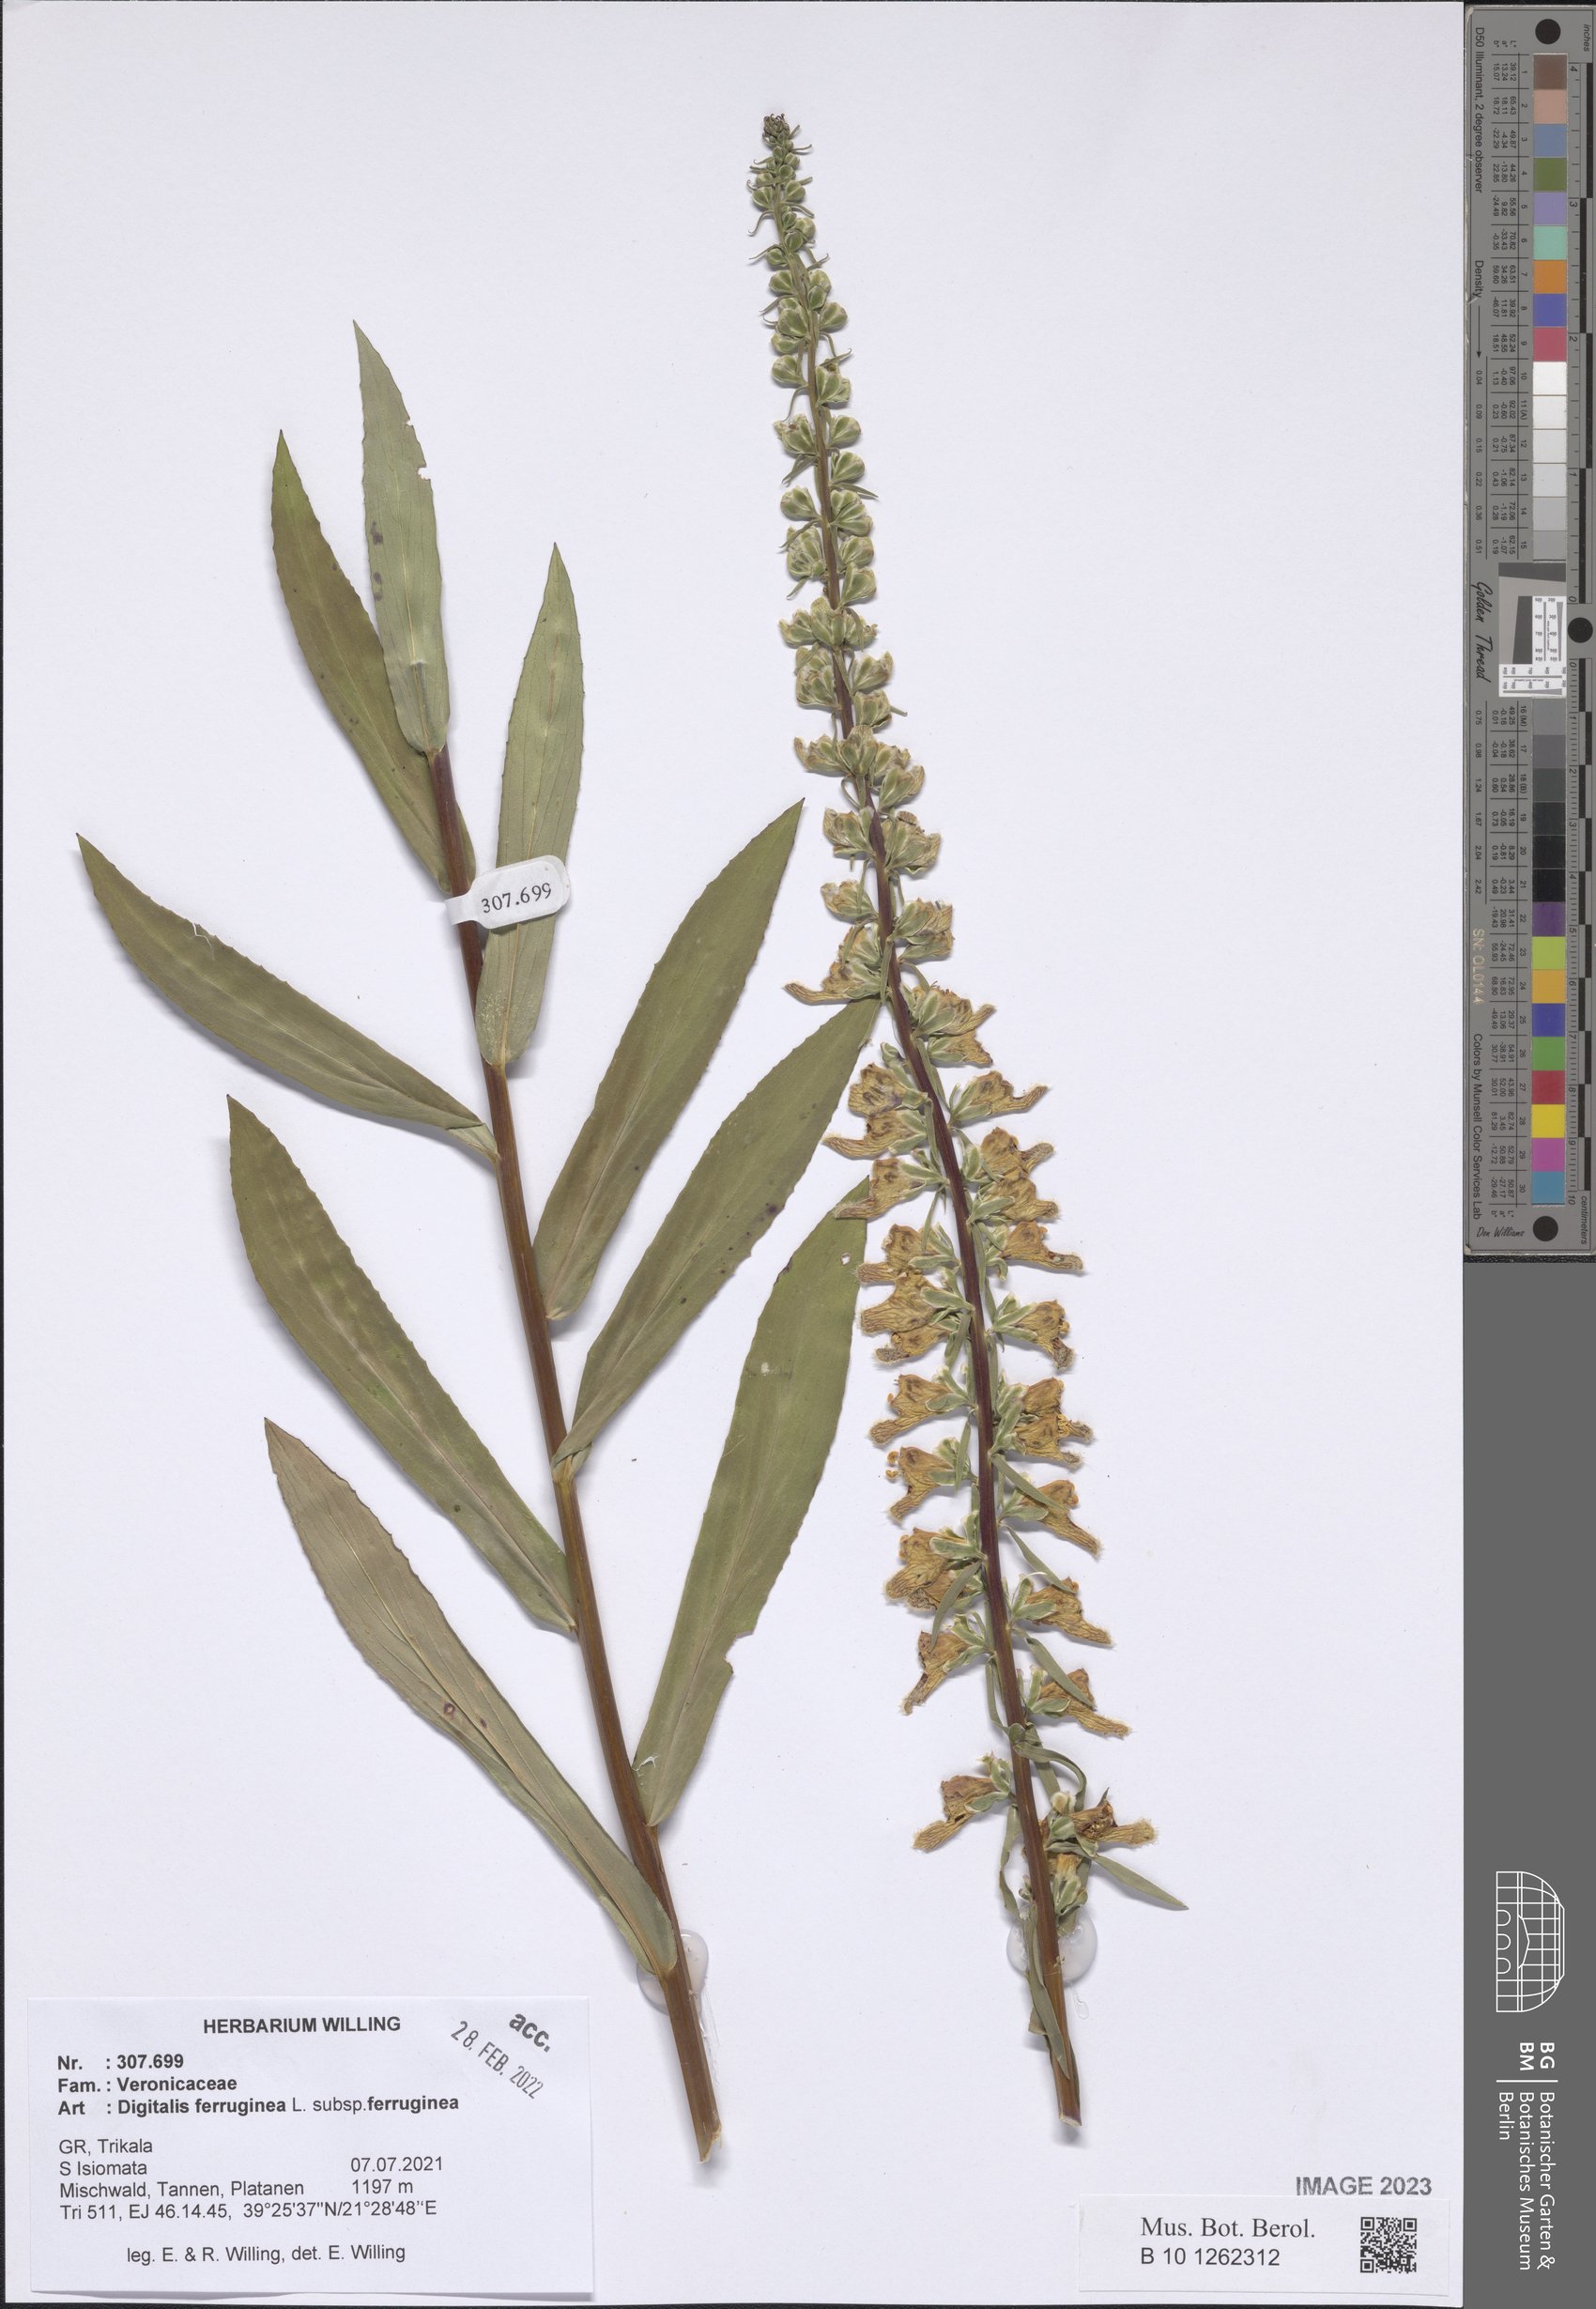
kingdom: Plantae
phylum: Tracheophyta
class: Magnoliopsida
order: Lamiales
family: Plantaginaceae
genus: Digitalis
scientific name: Digitalis ferruginea
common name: Rusty foxglove
